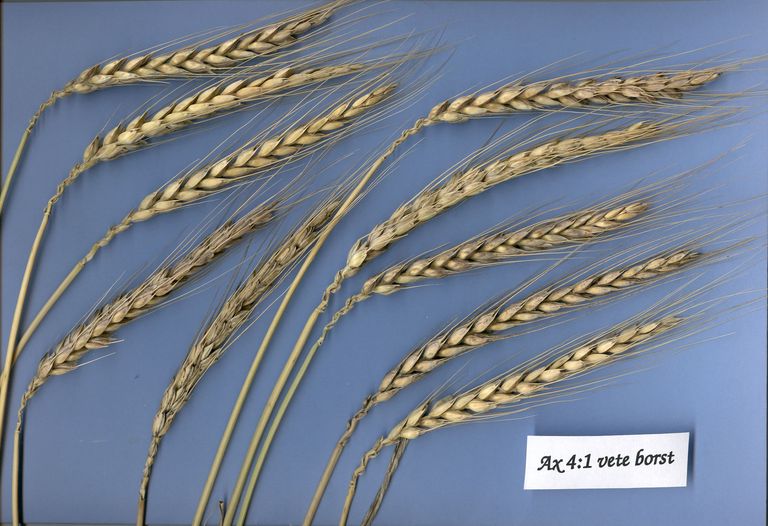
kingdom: Plantae
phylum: Tracheophyta
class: Liliopsida
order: Poales
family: Poaceae
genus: Triticum
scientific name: Triticum aestivum
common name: Common wheat
